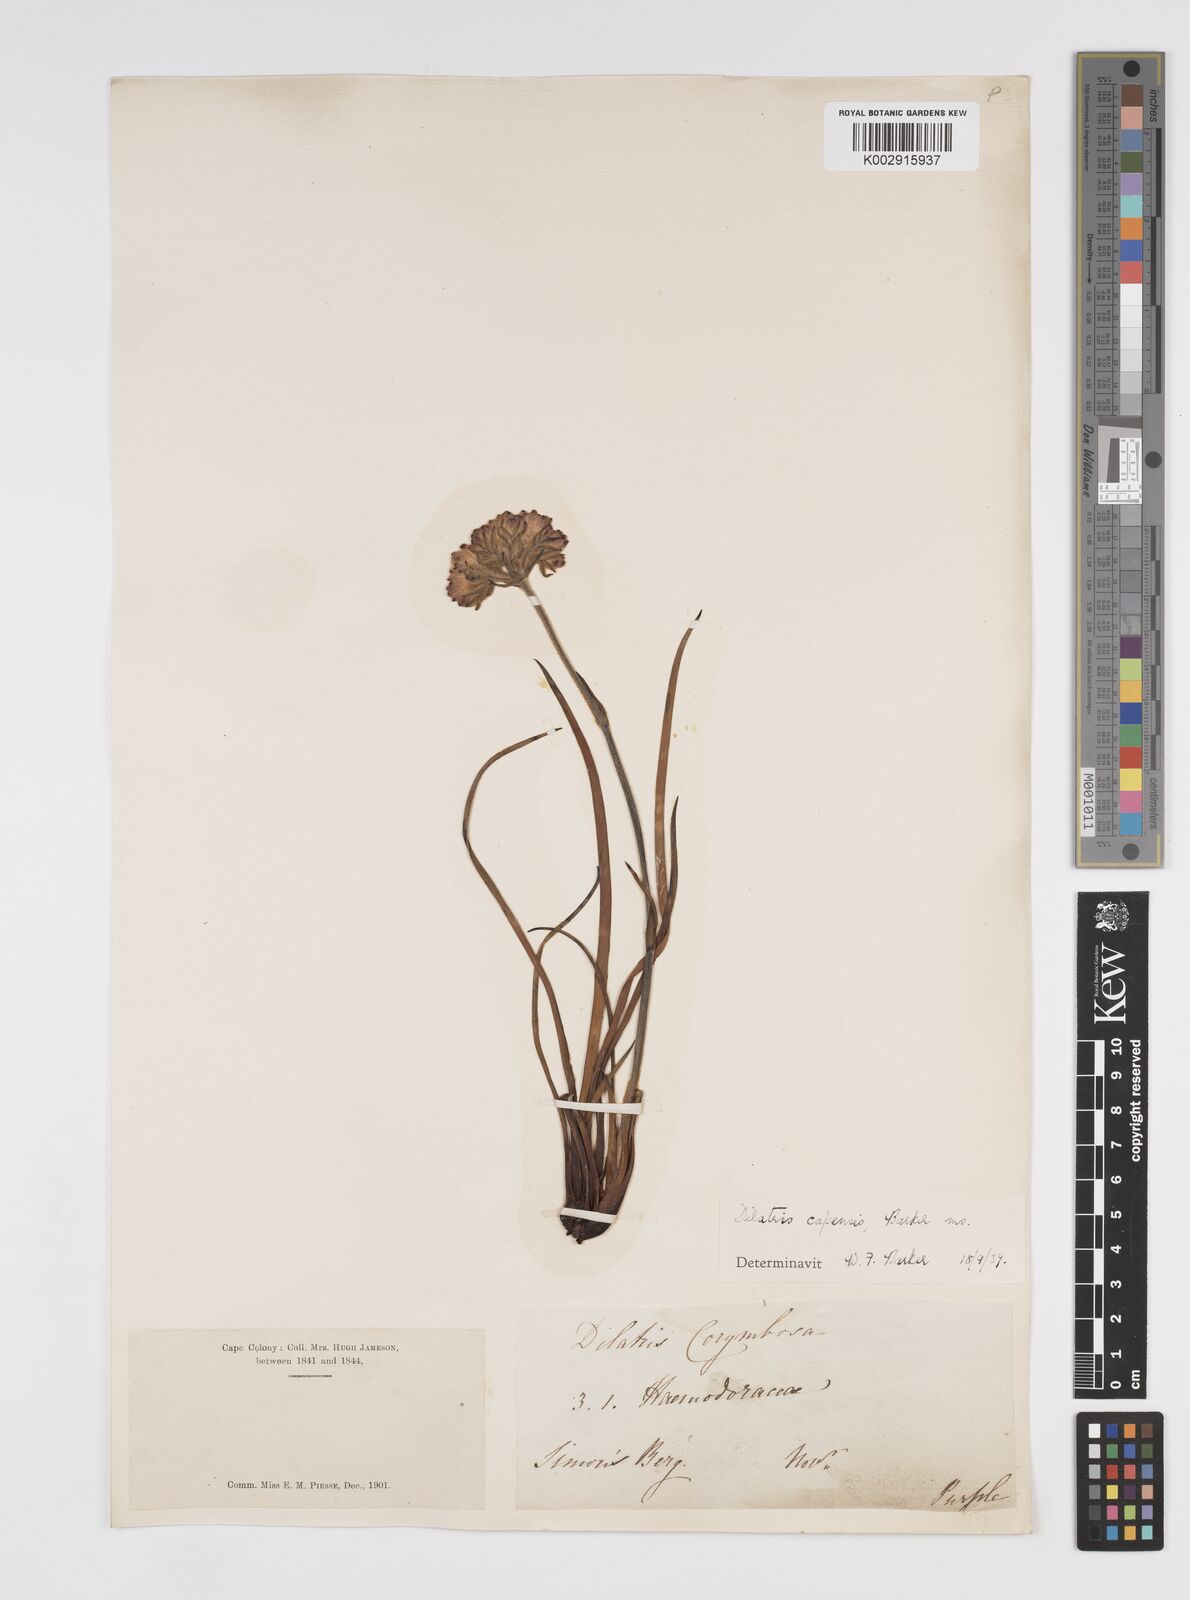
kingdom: Plantae
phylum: Tracheophyta
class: Liliopsida
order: Commelinales
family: Haemodoraceae
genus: Dilatris
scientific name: Dilatris pillansii
